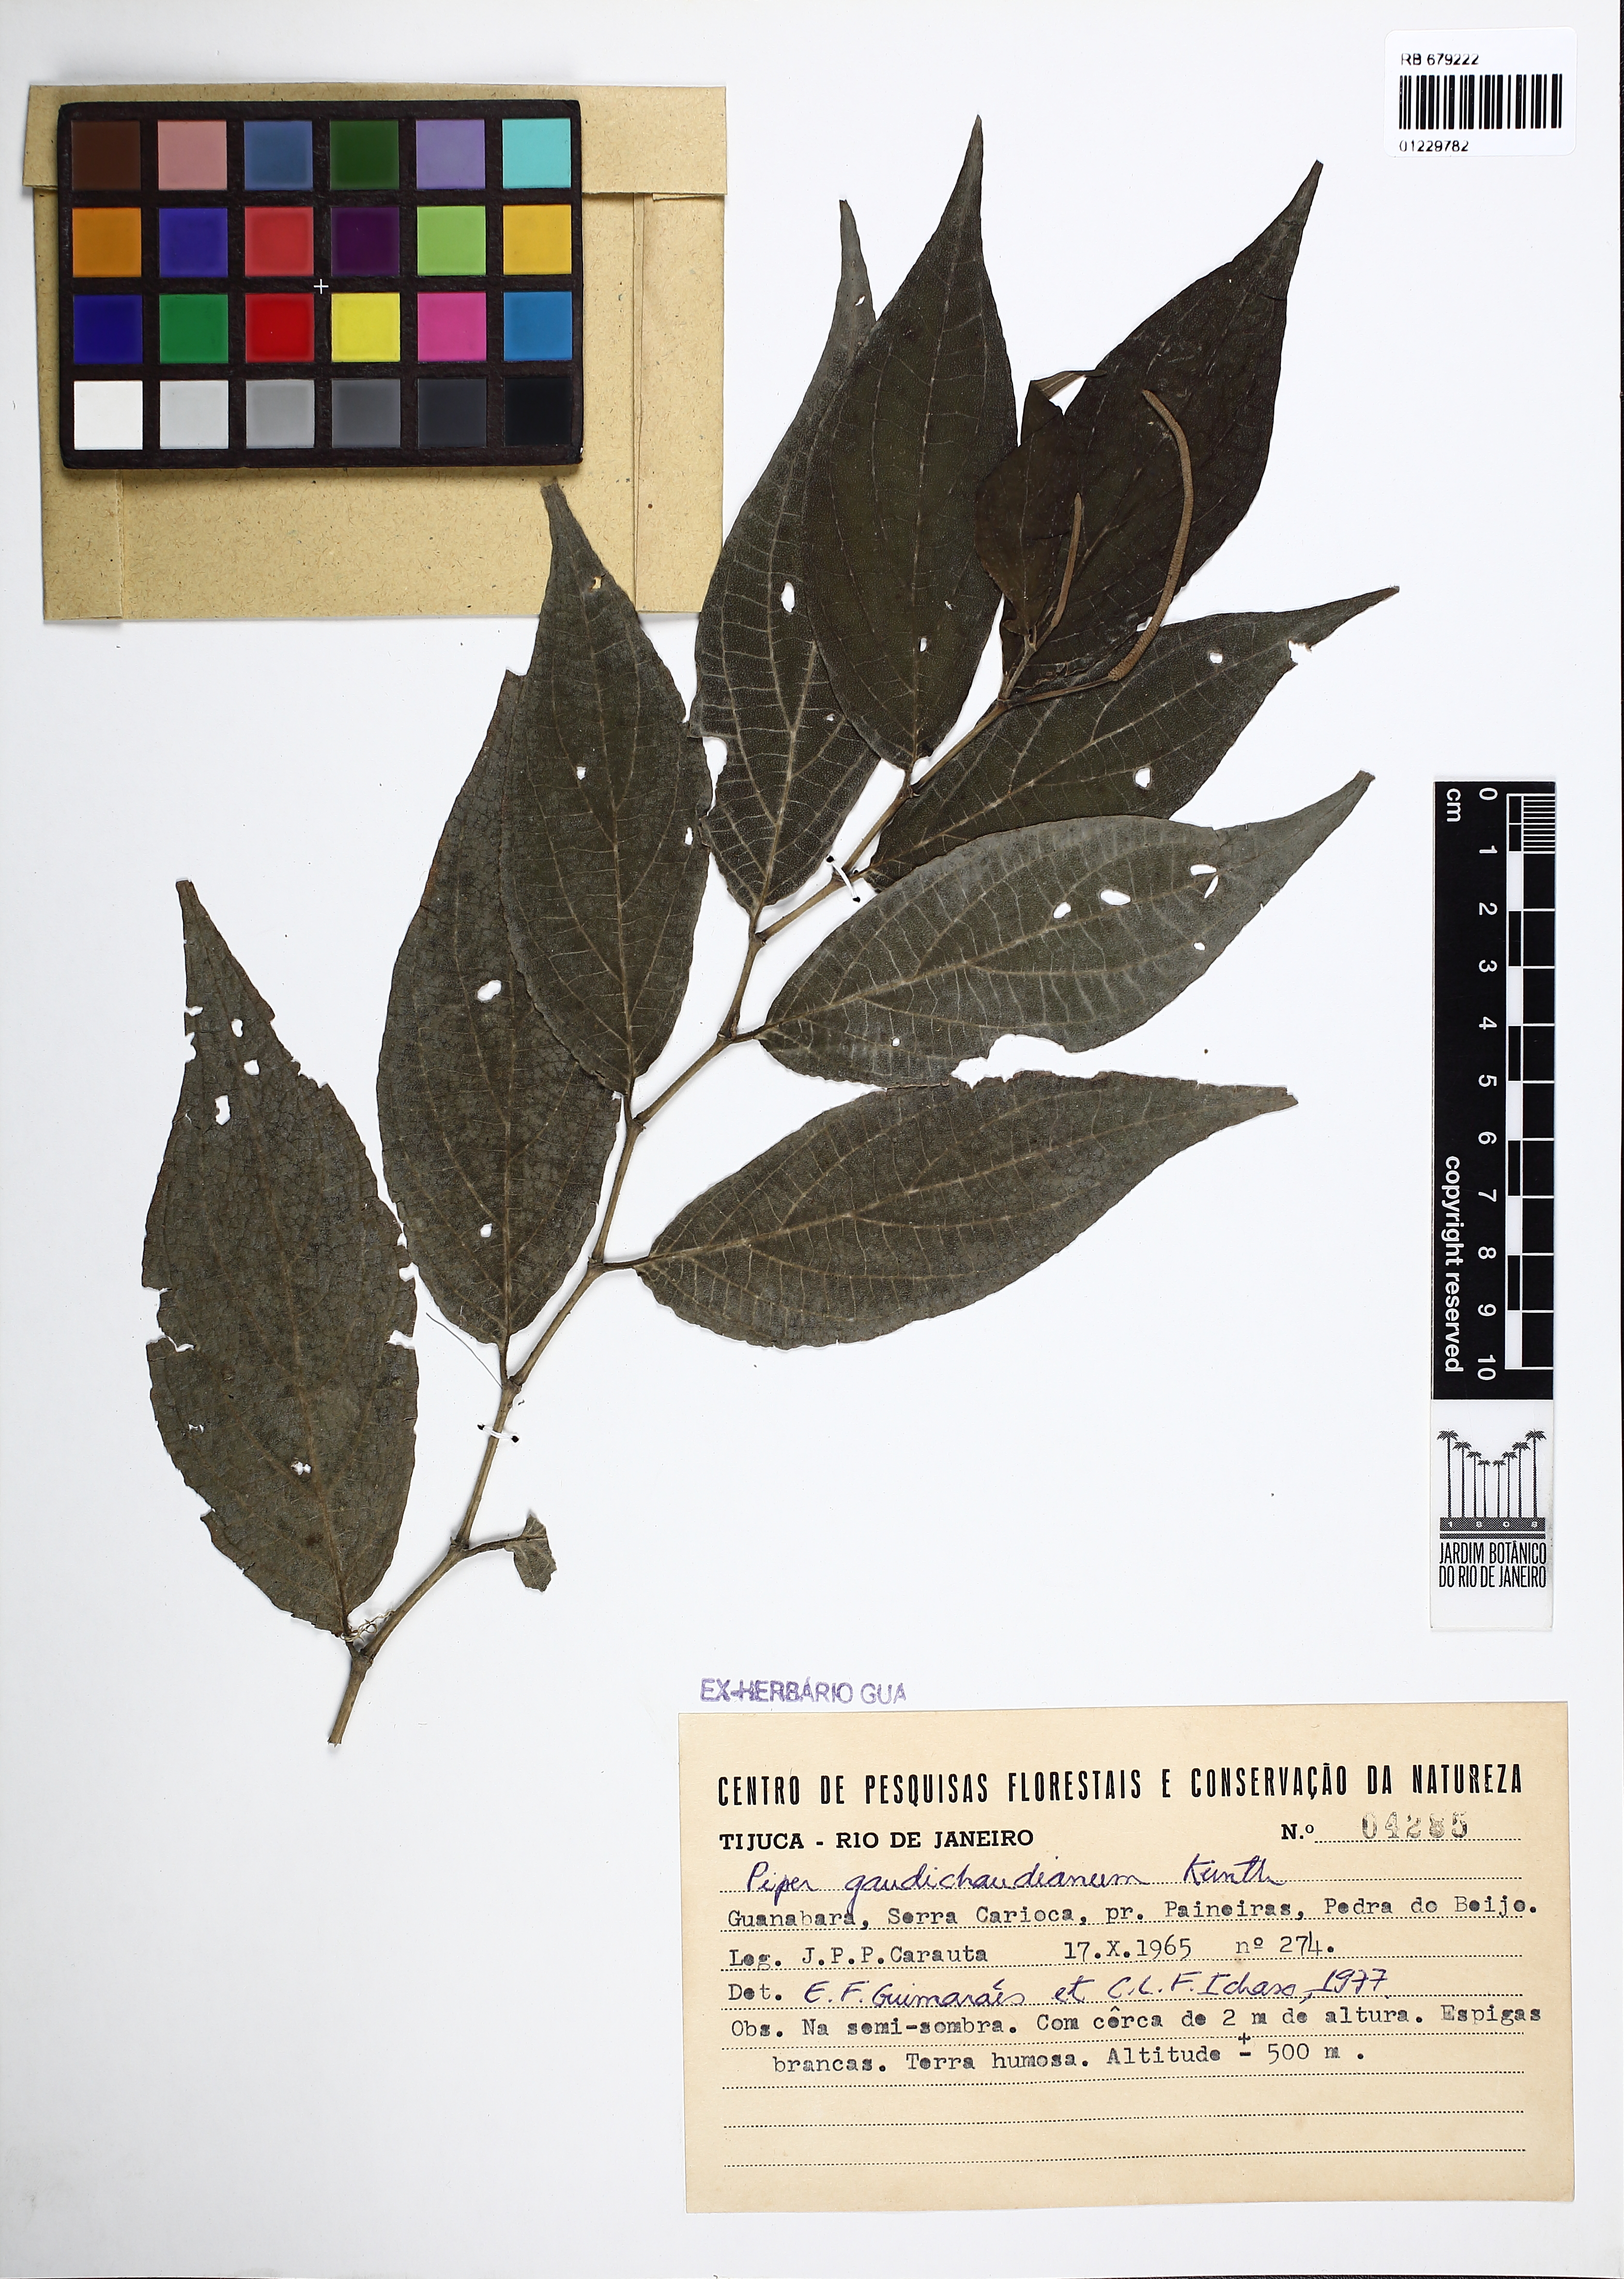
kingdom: Plantae
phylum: Tracheophyta
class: Magnoliopsida
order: Piperales
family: Piperaceae
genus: Piper
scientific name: Piper gaudichaudianum
